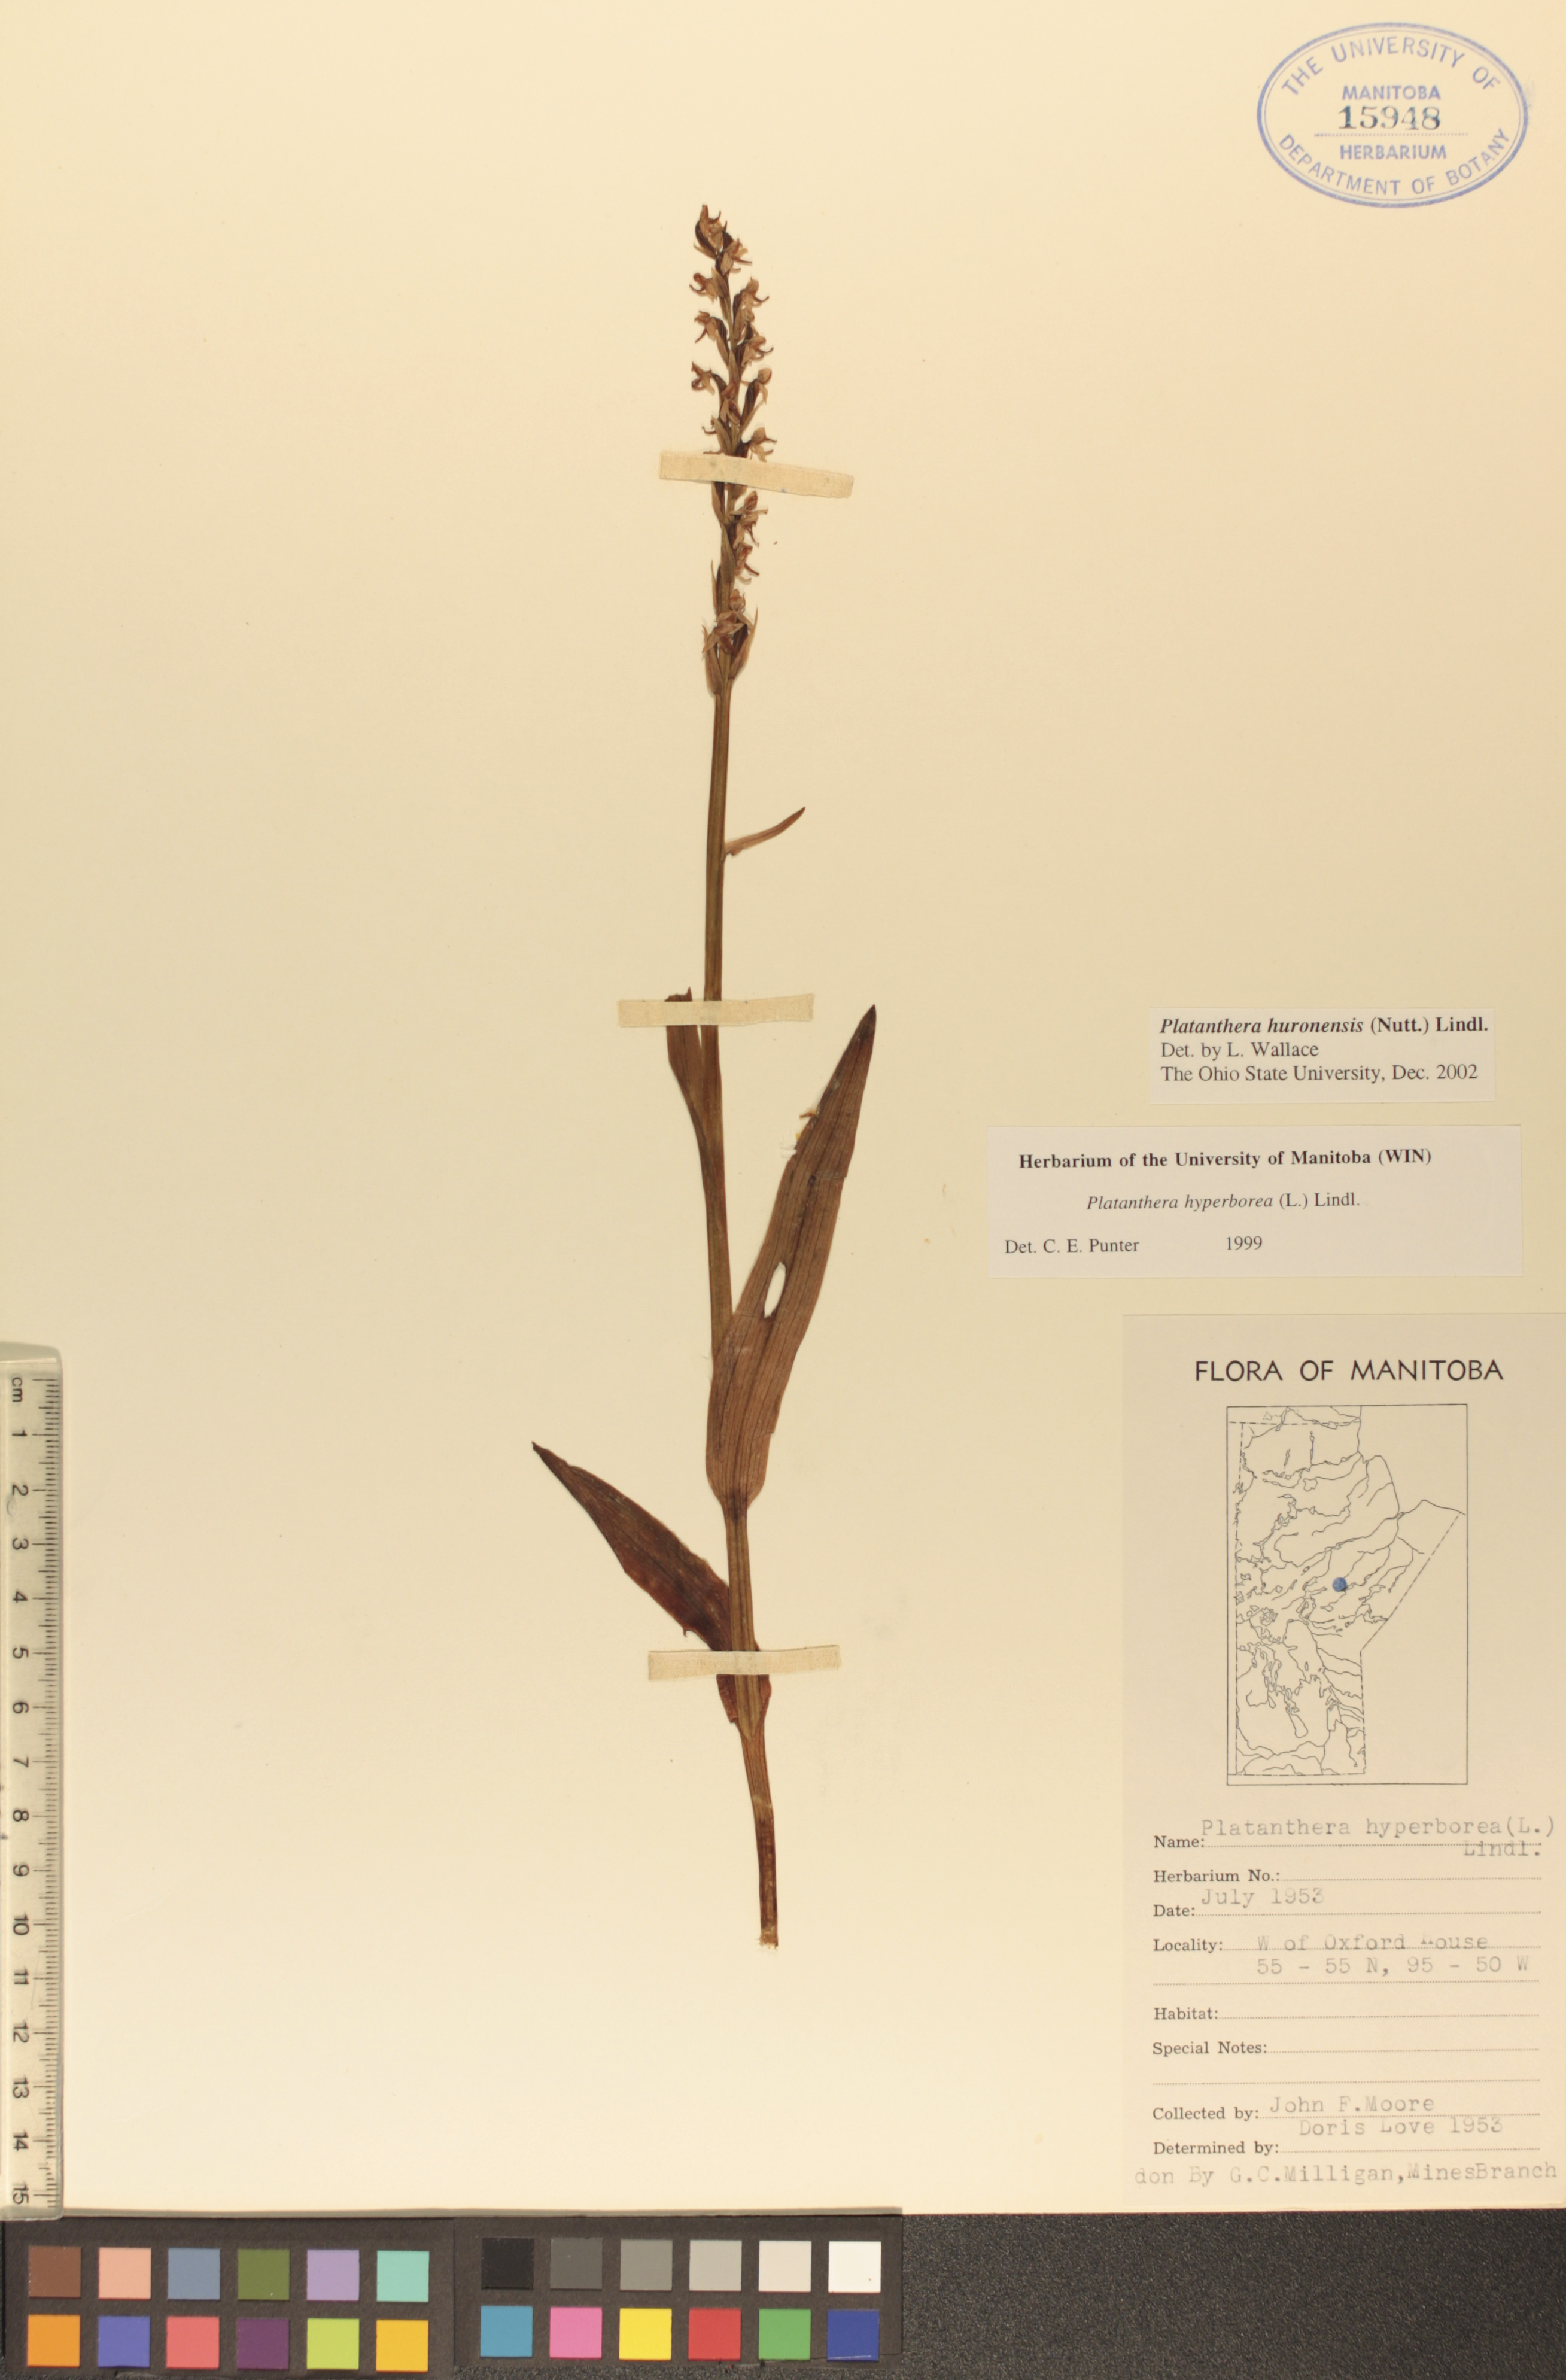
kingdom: Plantae
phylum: Tracheophyta
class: Liliopsida
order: Asparagales
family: Orchidaceae
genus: Platanthera
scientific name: Platanthera huronensis
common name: Fragrant green orchid
